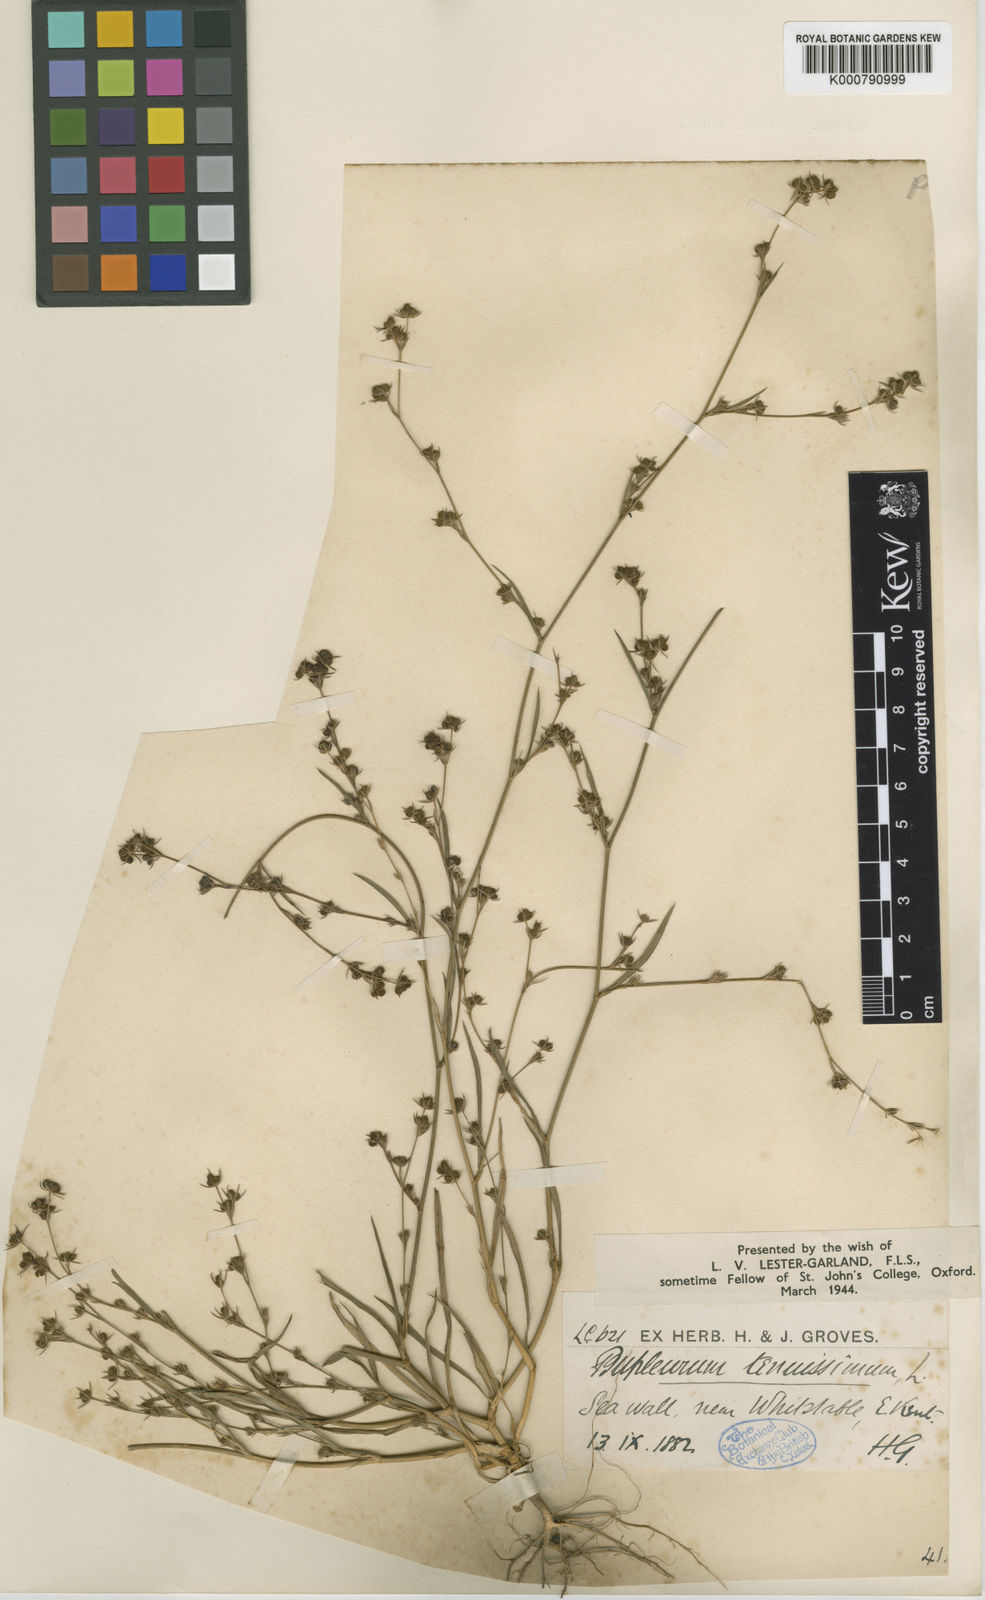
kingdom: Plantae
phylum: Tracheophyta
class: Magnoliopsida
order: Apiales
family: Apiaceae
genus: Bupleurum
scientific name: Bupleurum tenuissimum
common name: Slender hare's-ear
